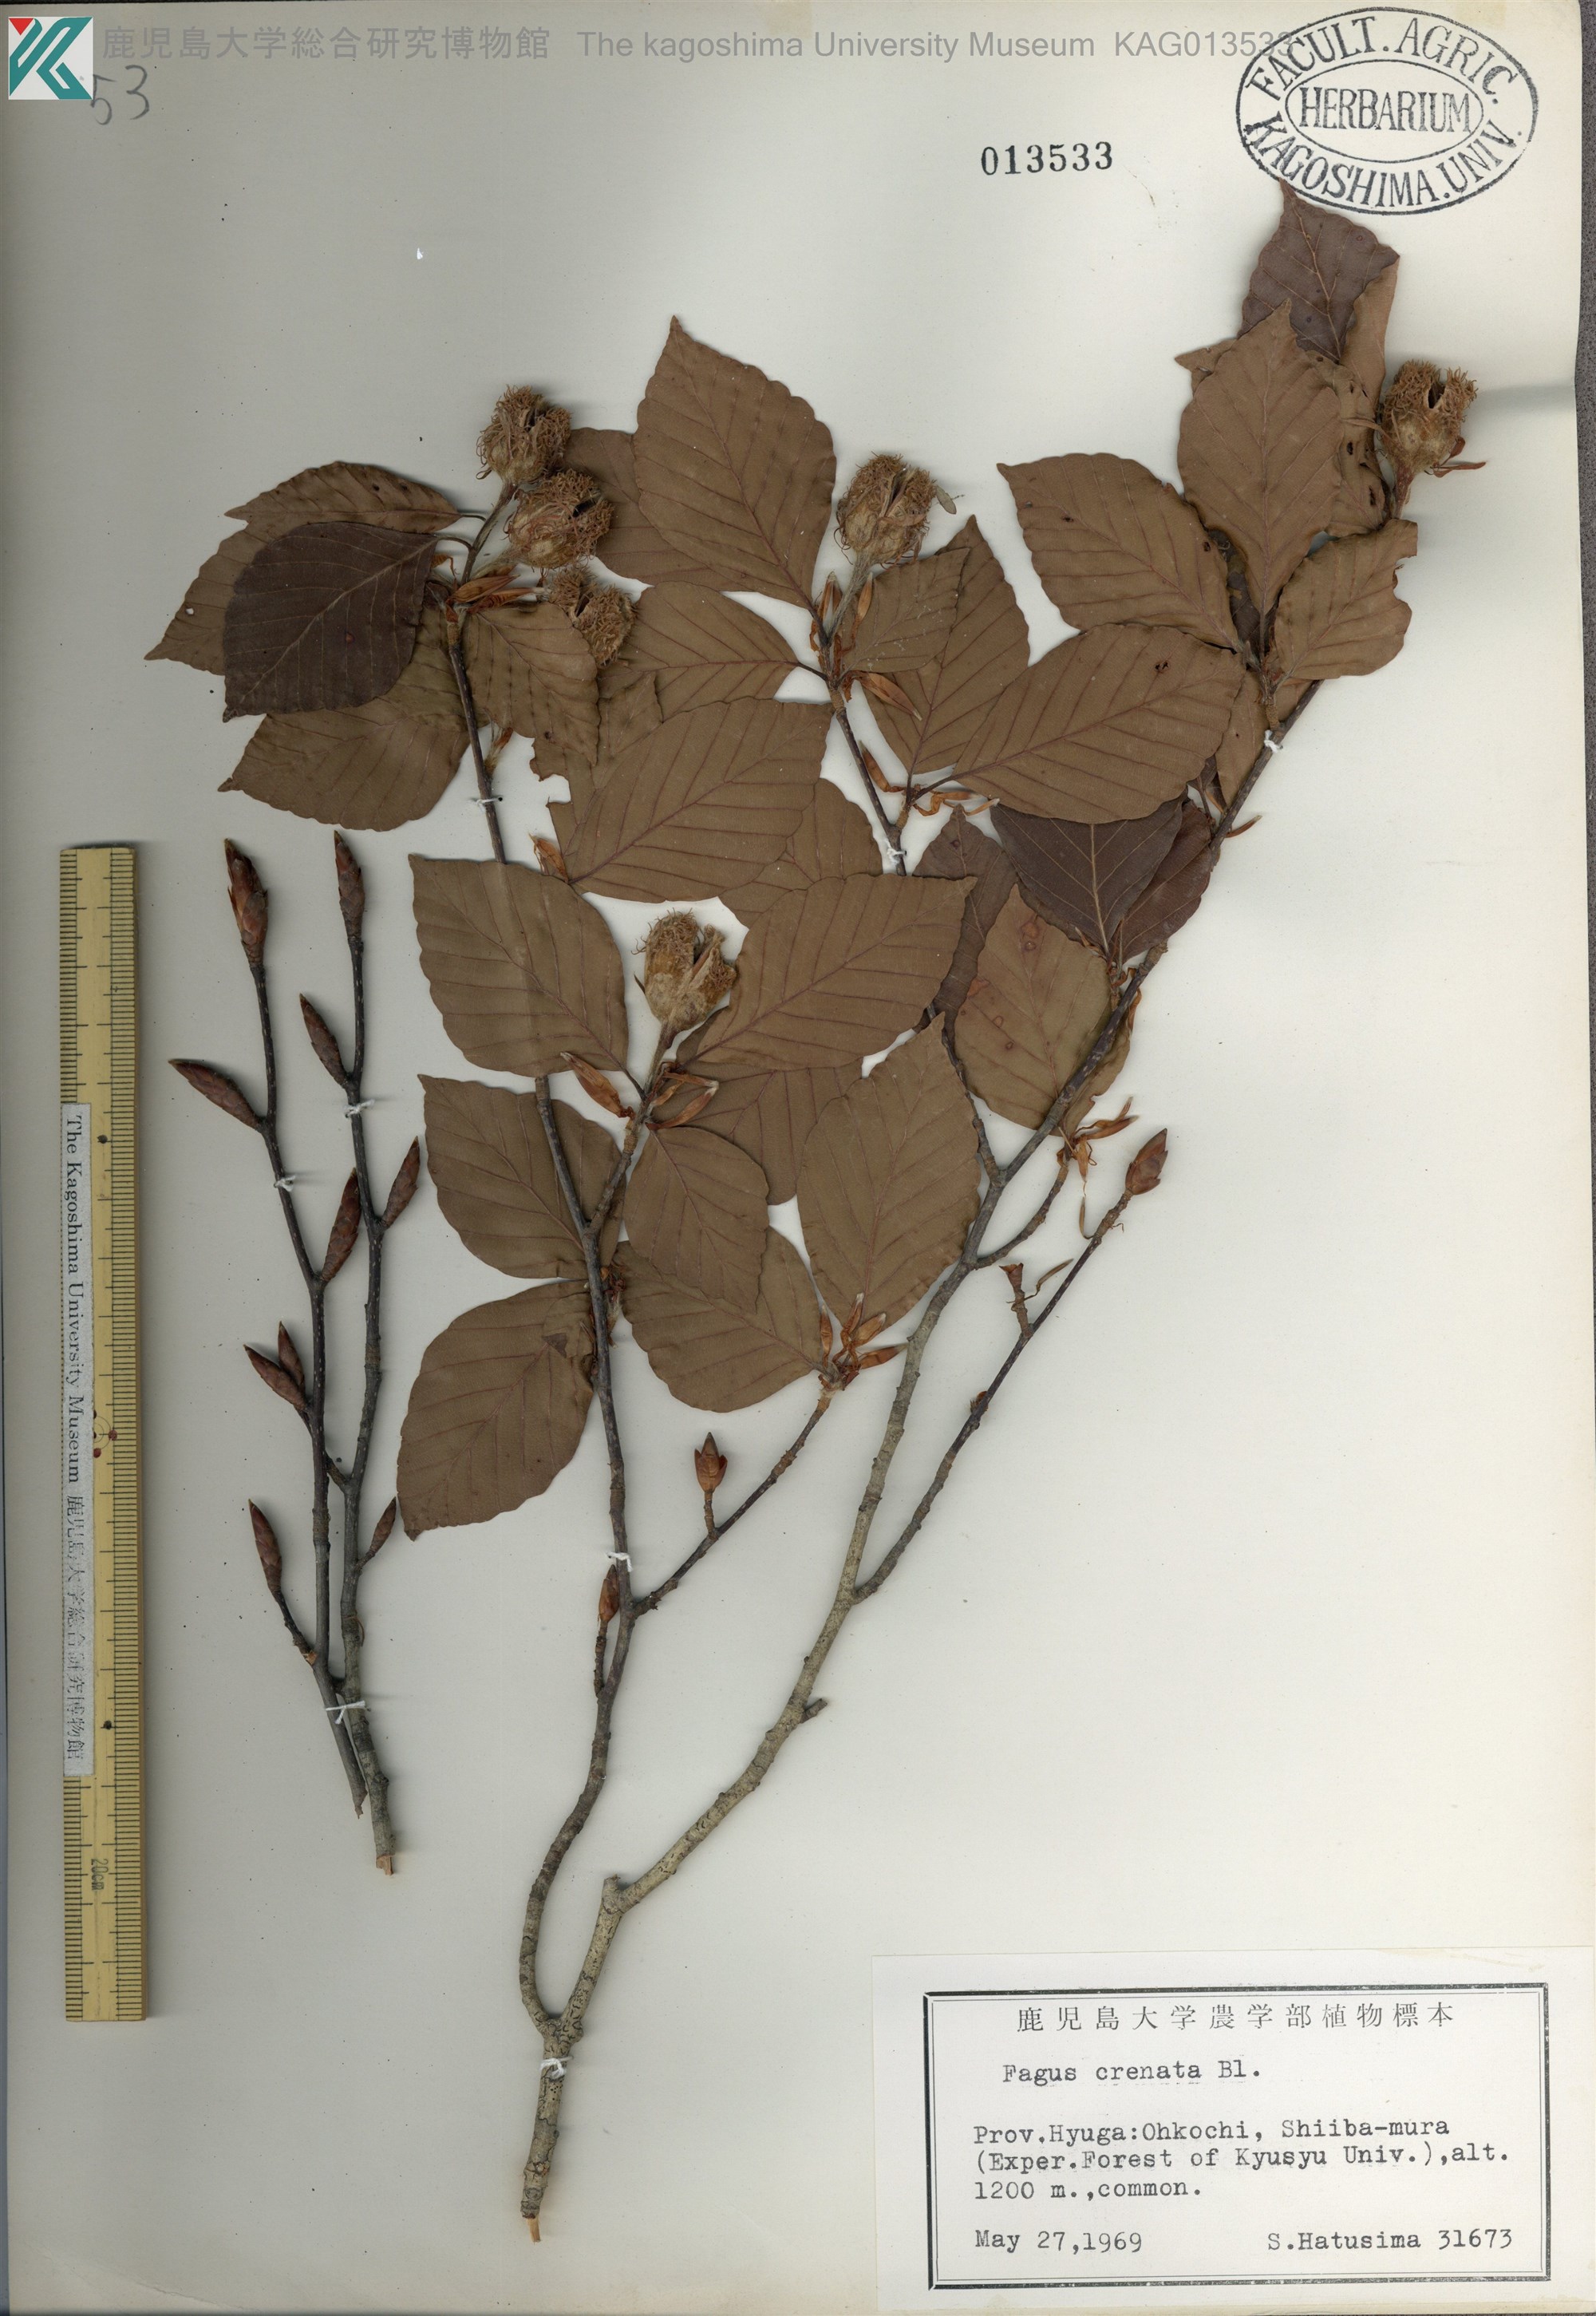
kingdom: Plantae
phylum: Tracheophyta
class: Magnoliopsida
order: Fagales
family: Fagaceae
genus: Fagus
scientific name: Fagus crenata
